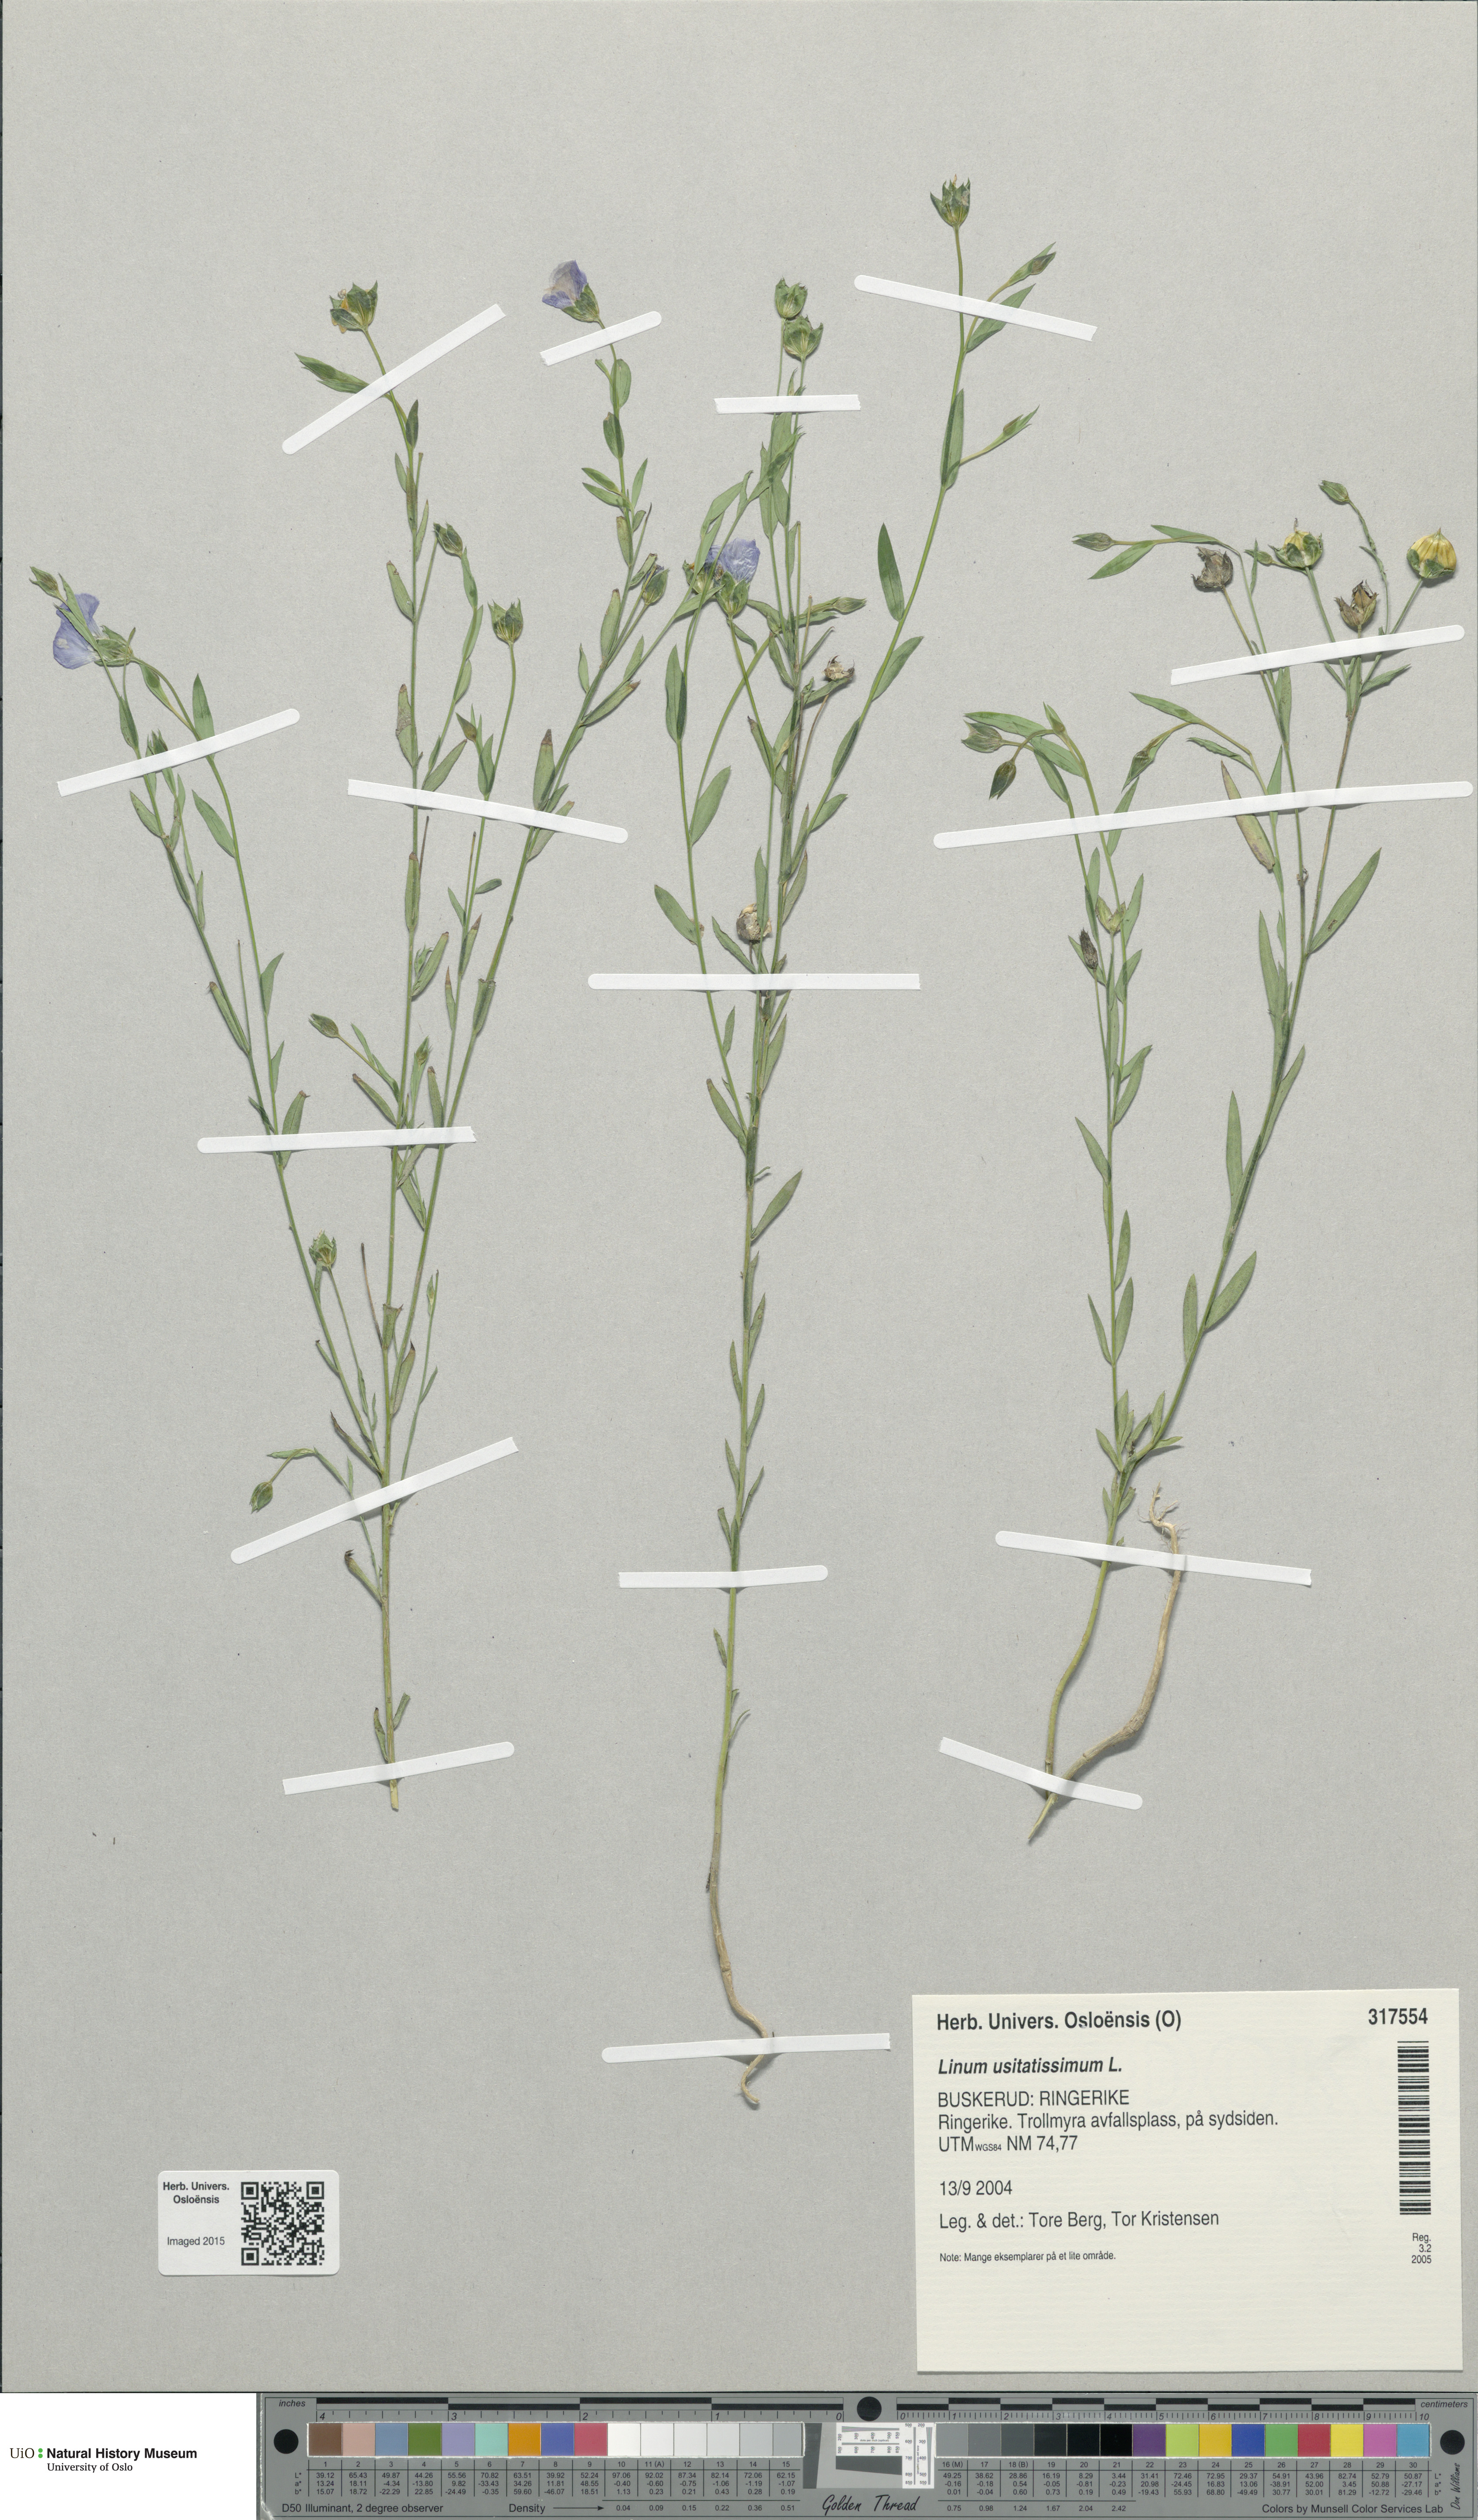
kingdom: Plantae
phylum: Tracheophyta
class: Magnoliopsida
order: Malpighiales
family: Linaceae
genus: Linum
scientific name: Linum usitatissimum
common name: Flax
